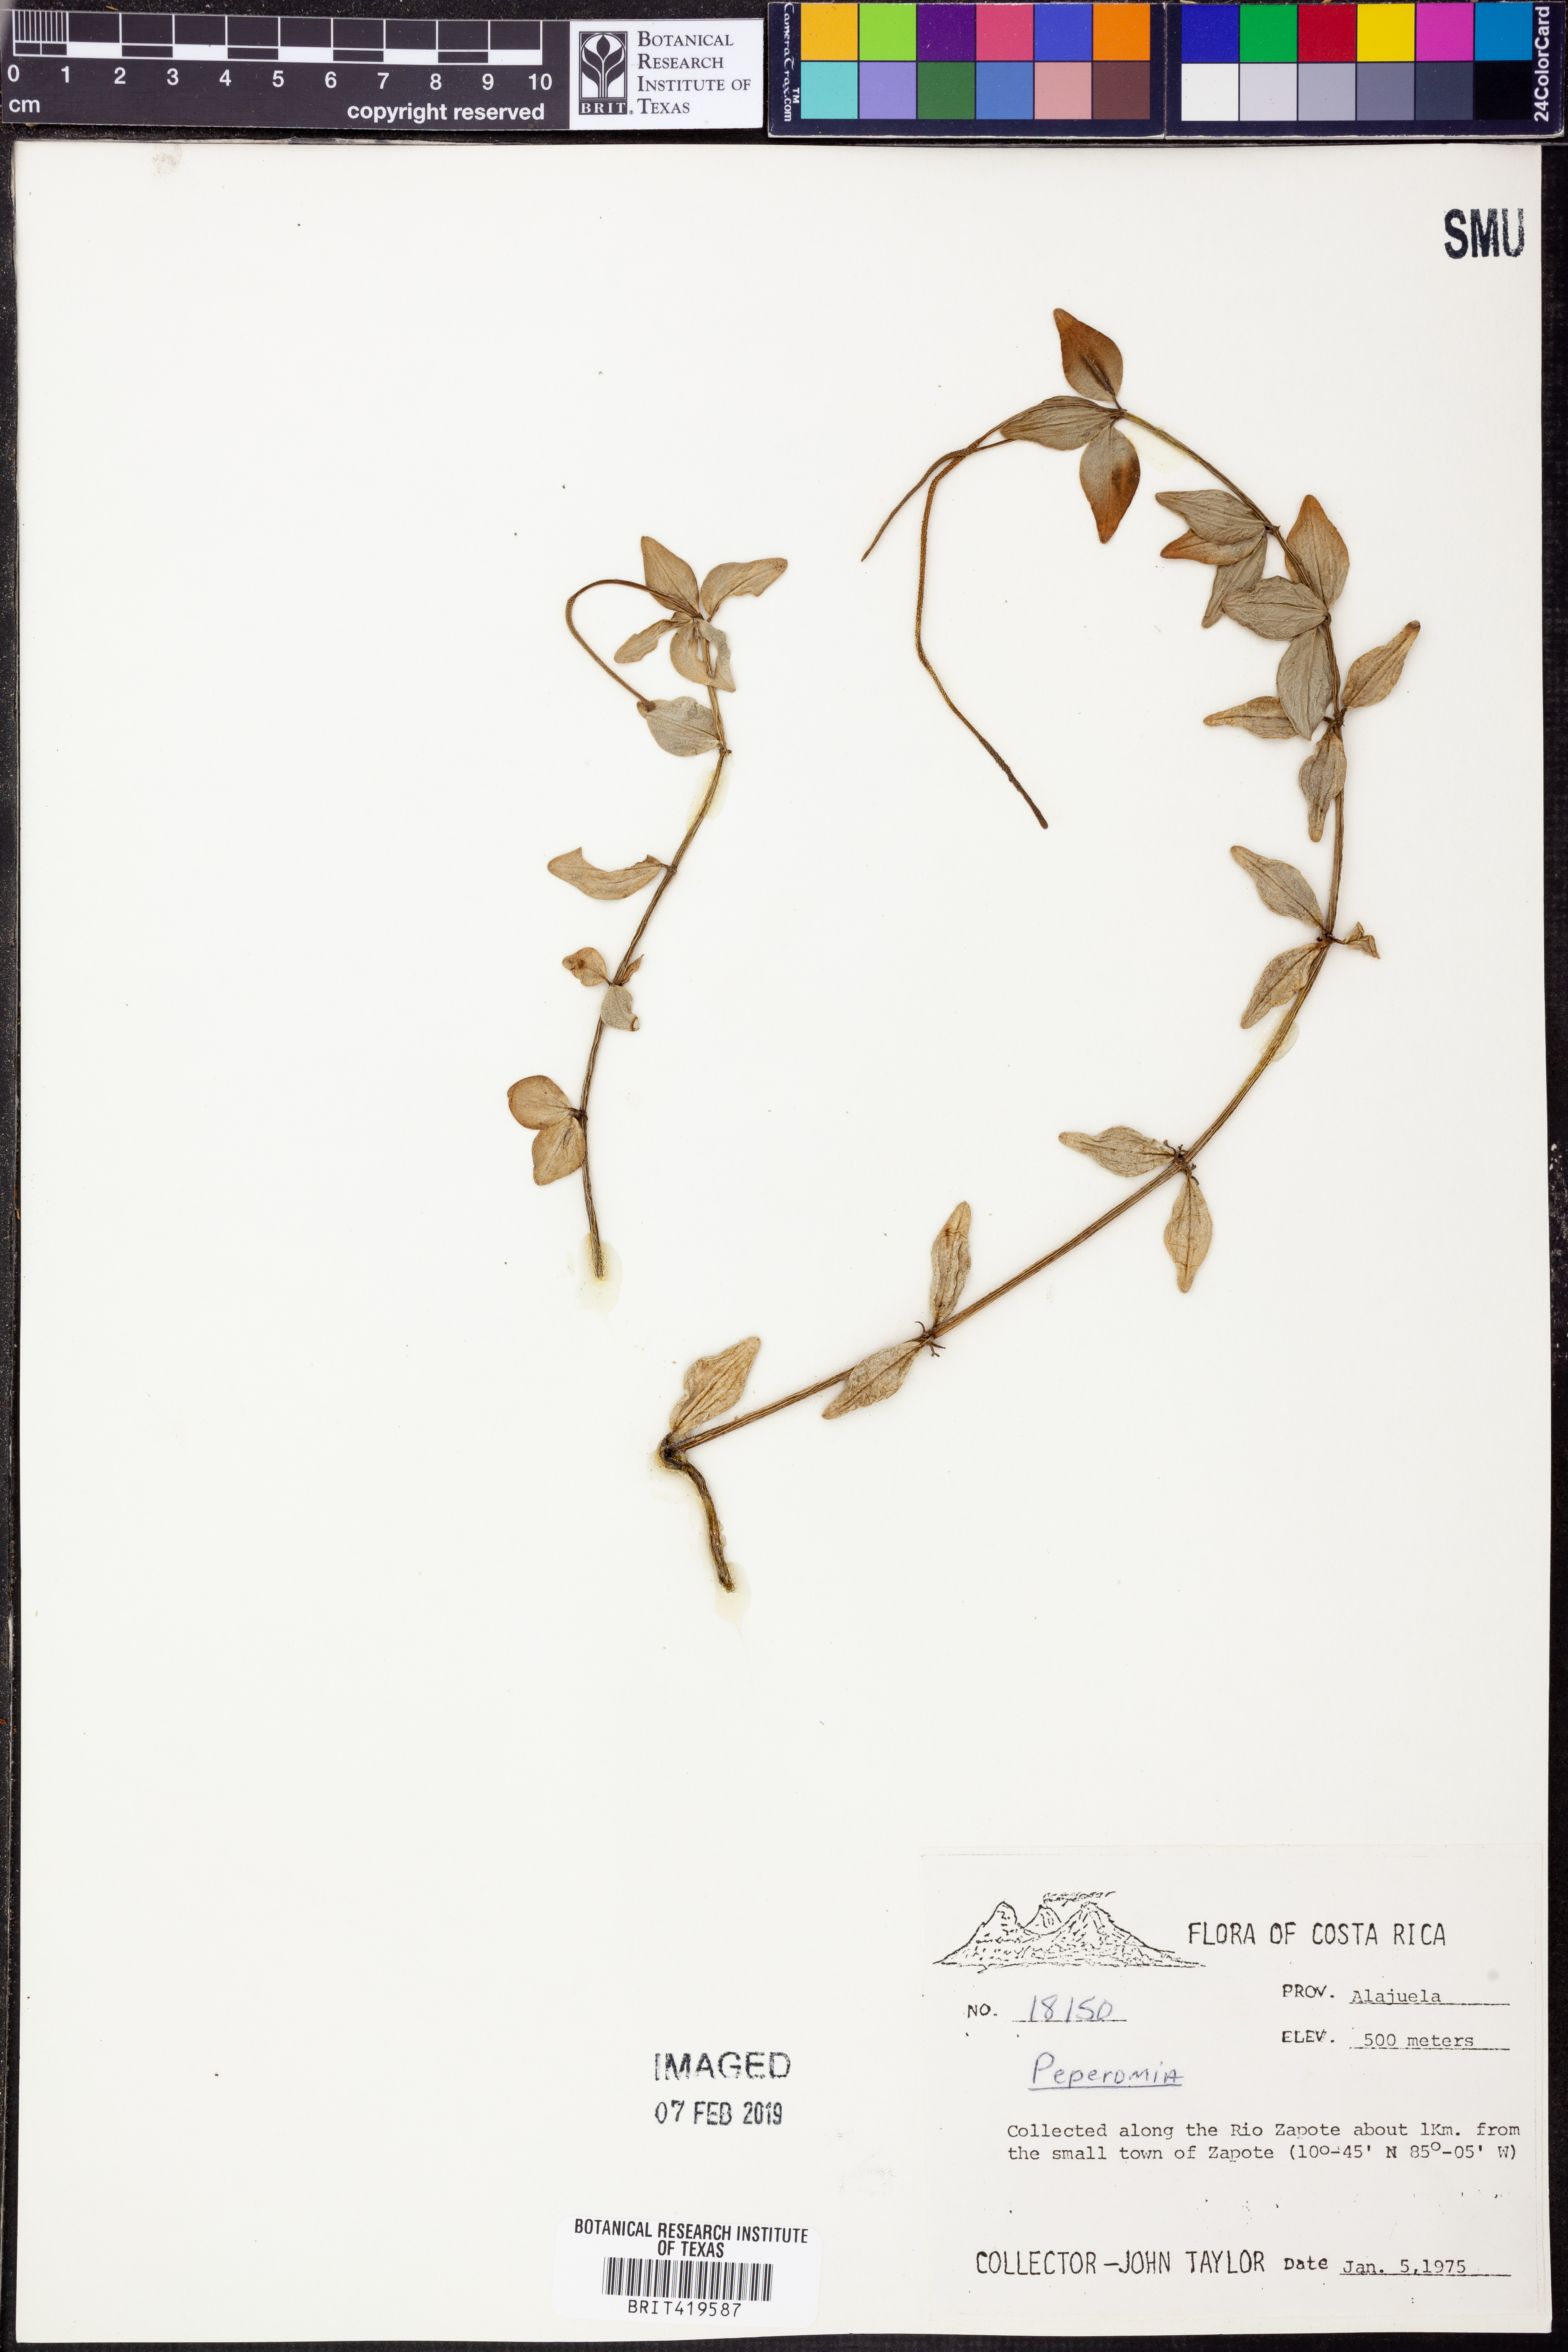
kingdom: Plantae
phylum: Tracheophyta
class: Magnoliopsida
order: Piperales
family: Piperaceae
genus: Peperomia
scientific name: Peperomia
